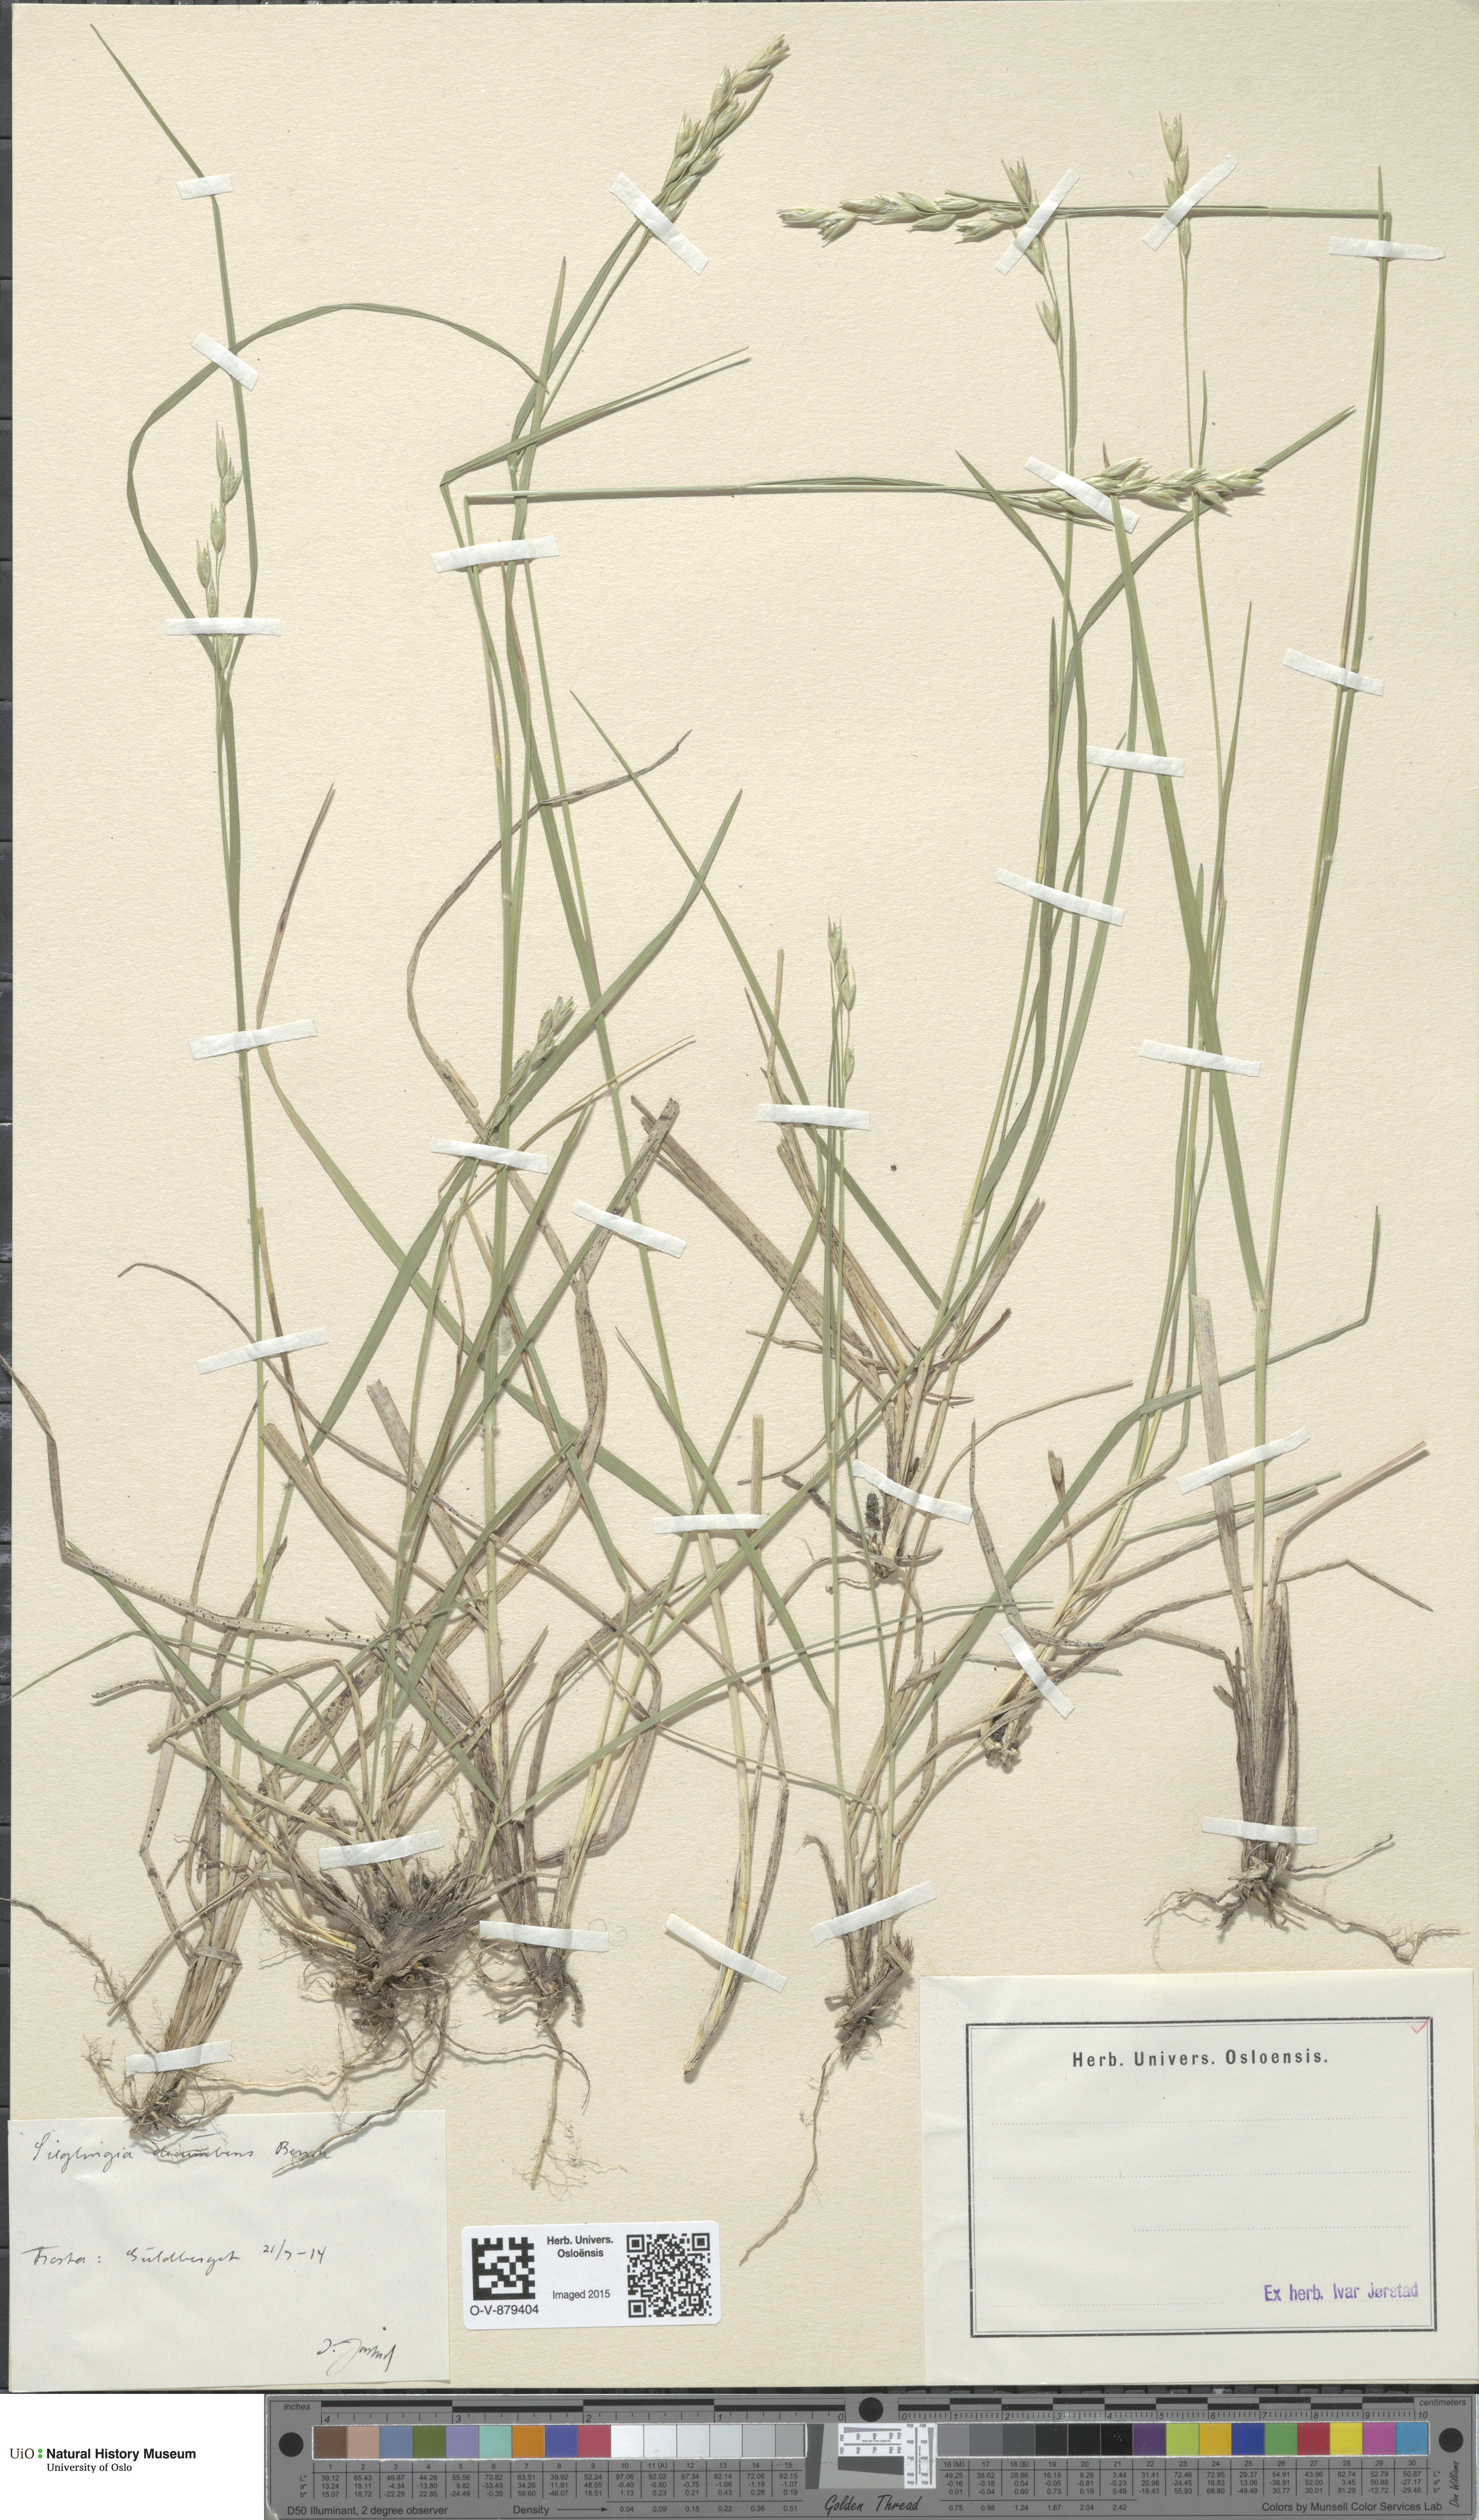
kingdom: Plantae
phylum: Tracheophyta
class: Liliopsida
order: Poales
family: Poaceae
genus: Danthonia
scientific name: Danthonia decumbens
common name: Common heathgrass
